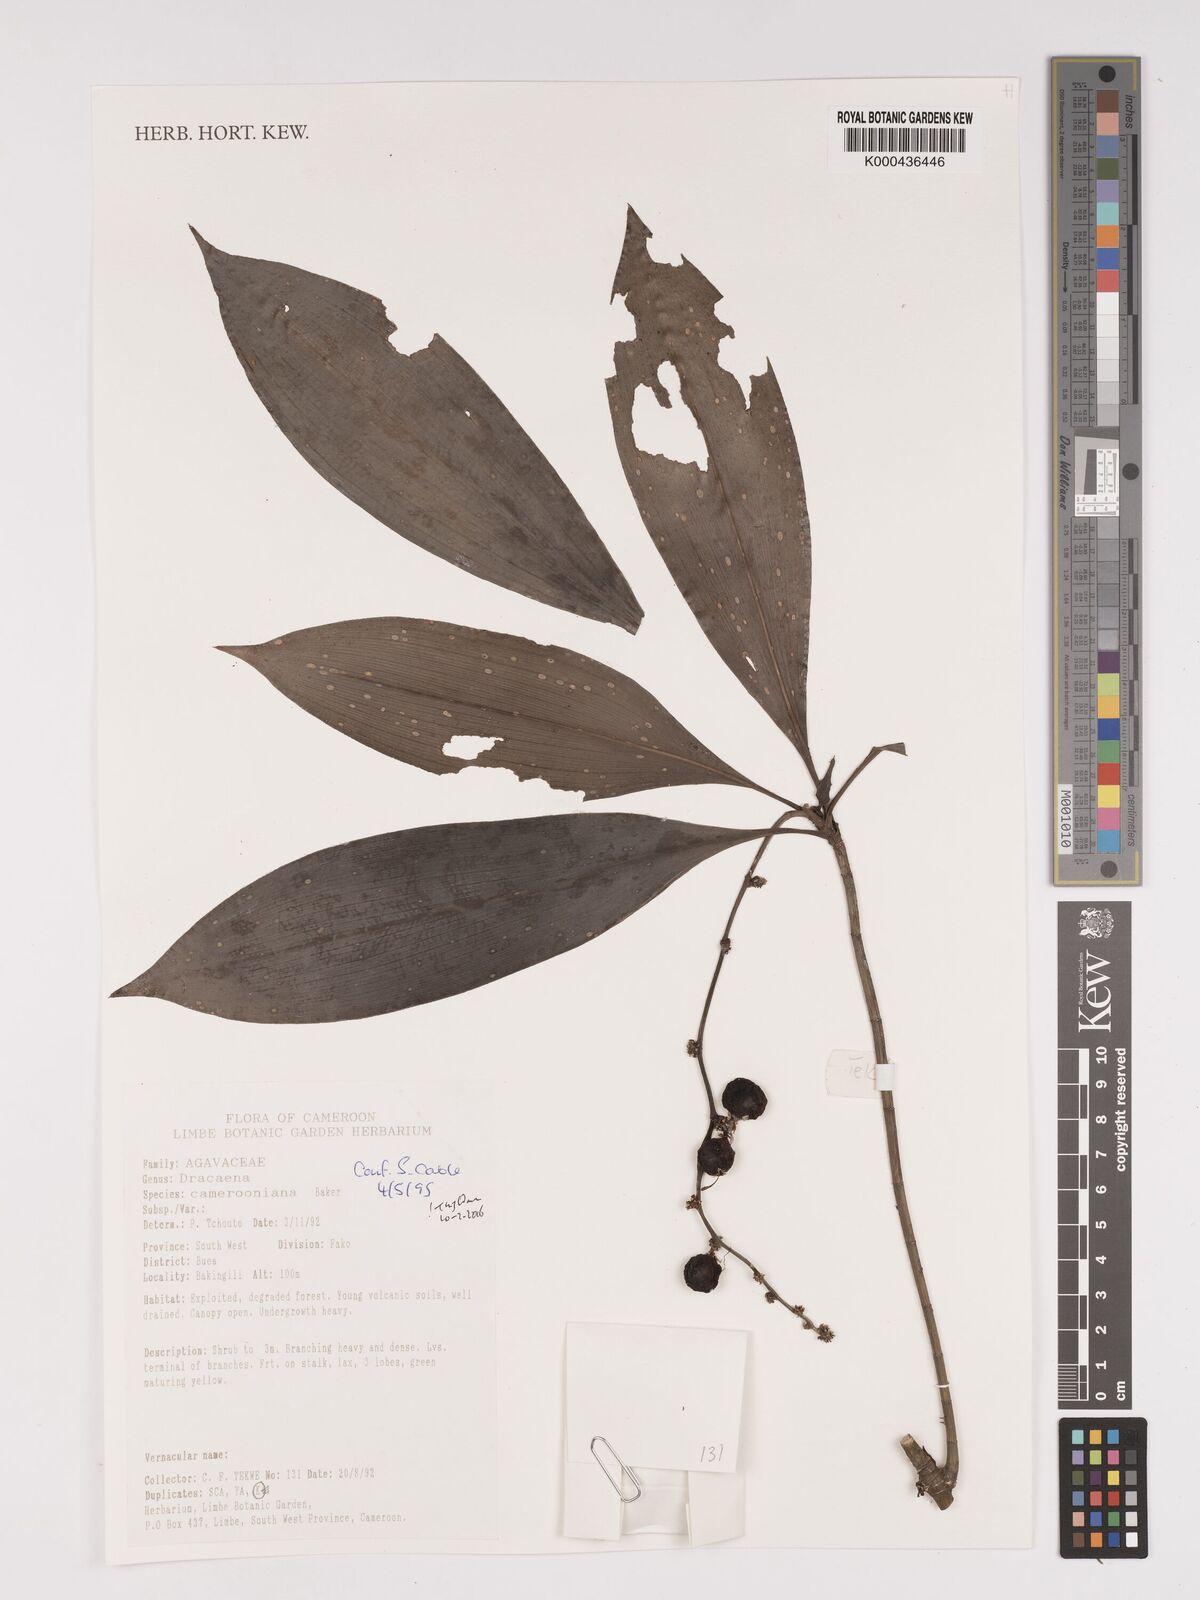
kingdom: Plantae
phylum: Tracheophyta
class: Liliopsida
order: Asparagales
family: Asparagaceae
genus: Dracaena
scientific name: Dracaena camerooniana
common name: Dragon tree
